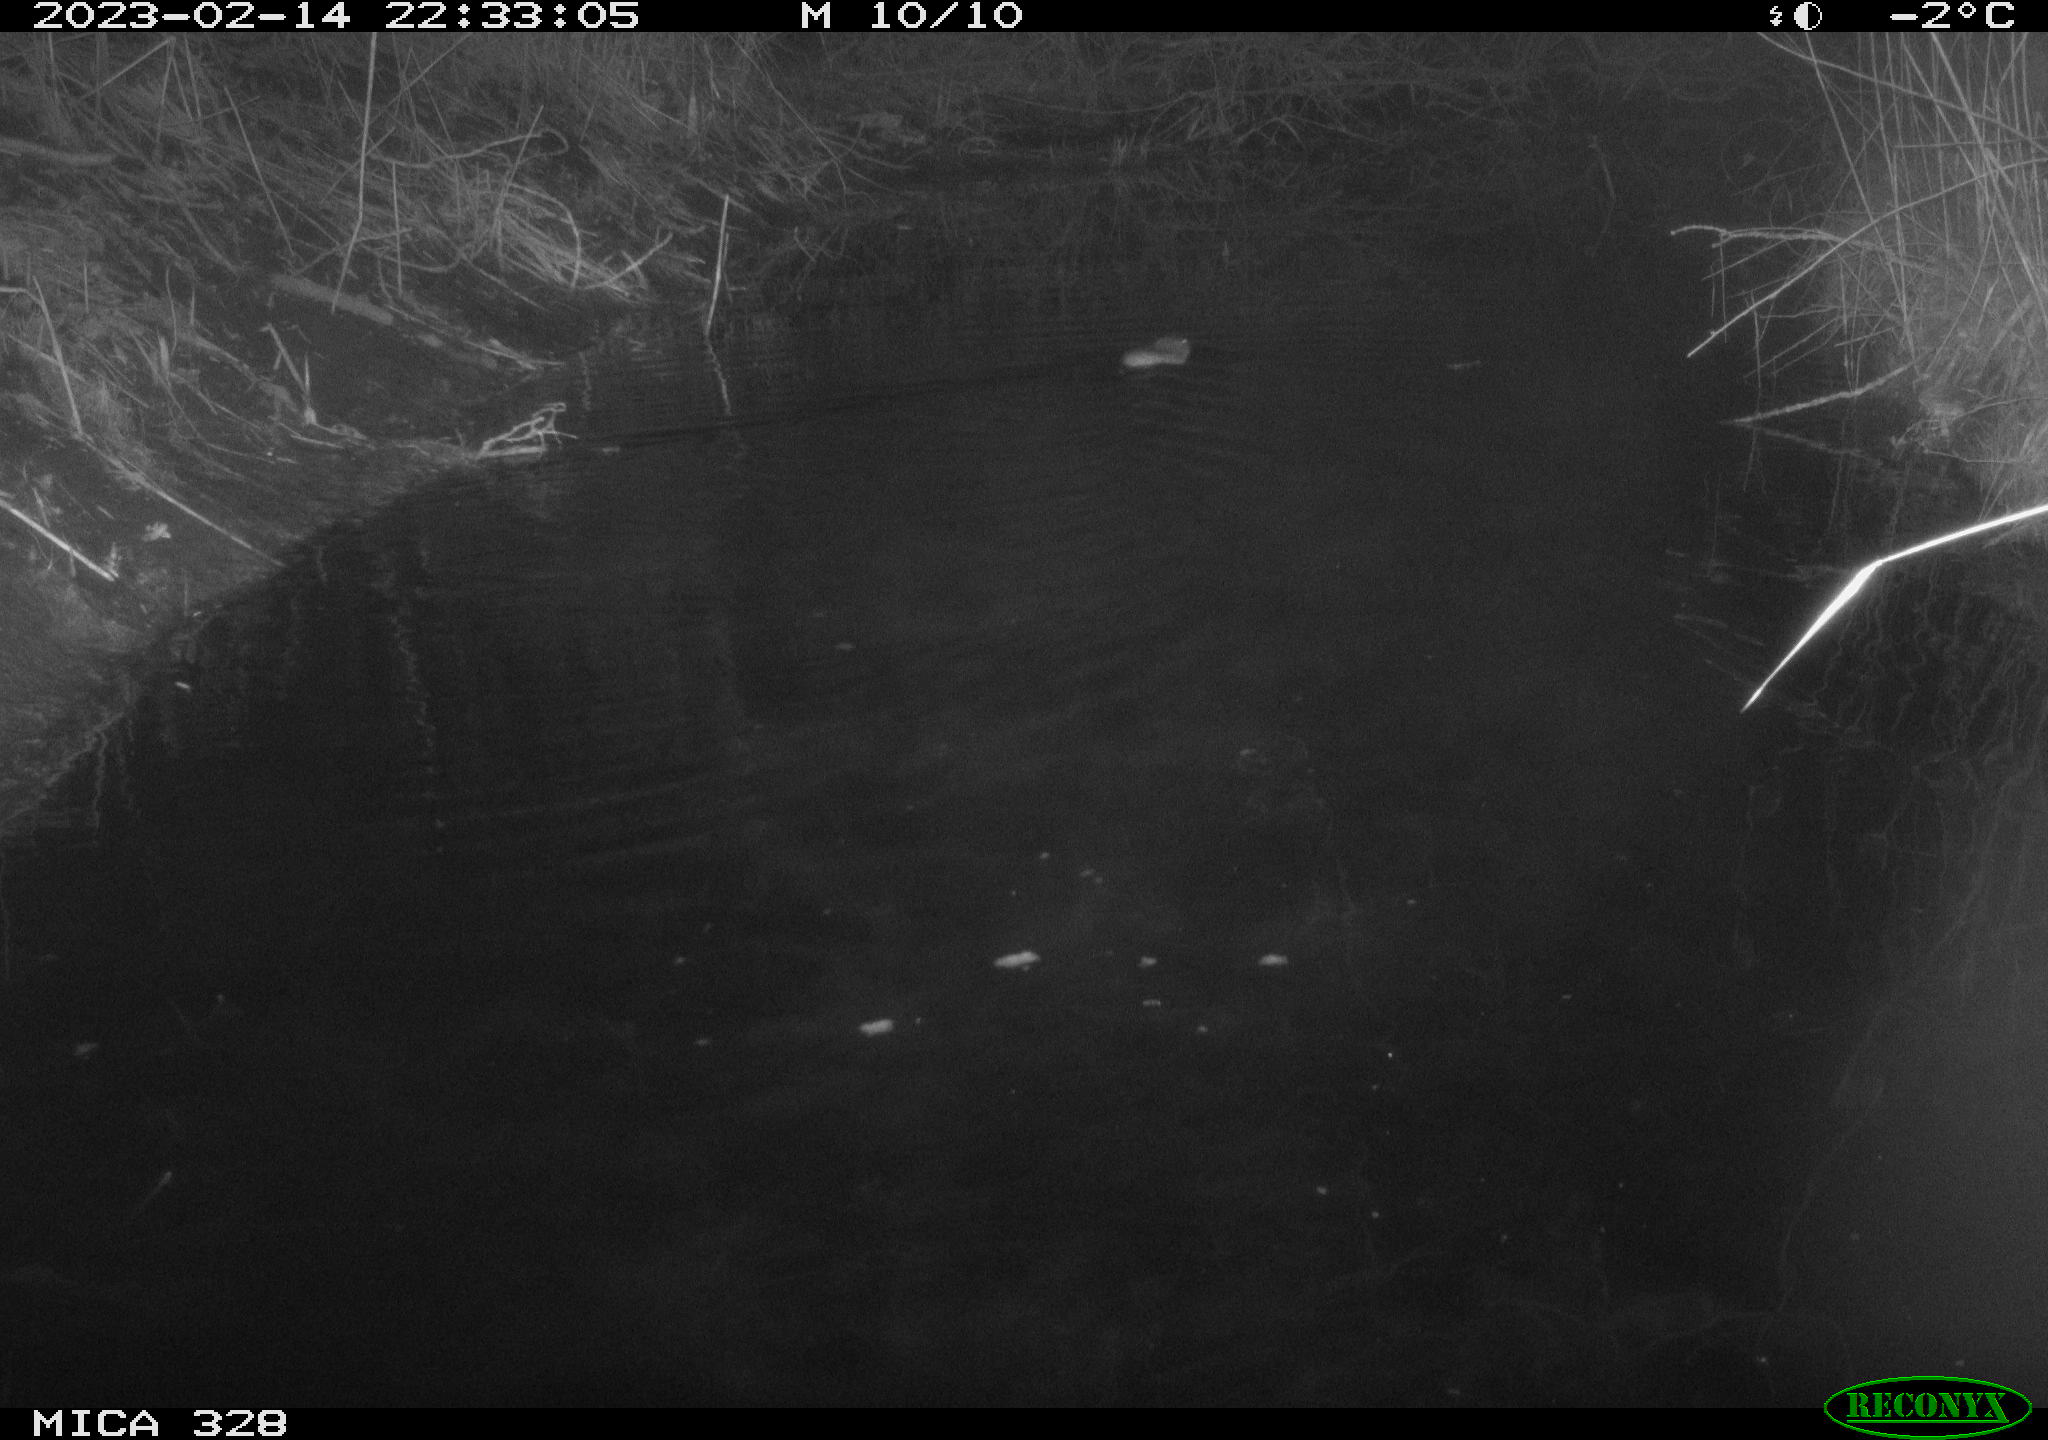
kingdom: Animalia
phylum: Chordata
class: Mammalia
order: Rodentia
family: Cricetidae
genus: Ondatra
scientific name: Ondatra zibethicus
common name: Muskrat
